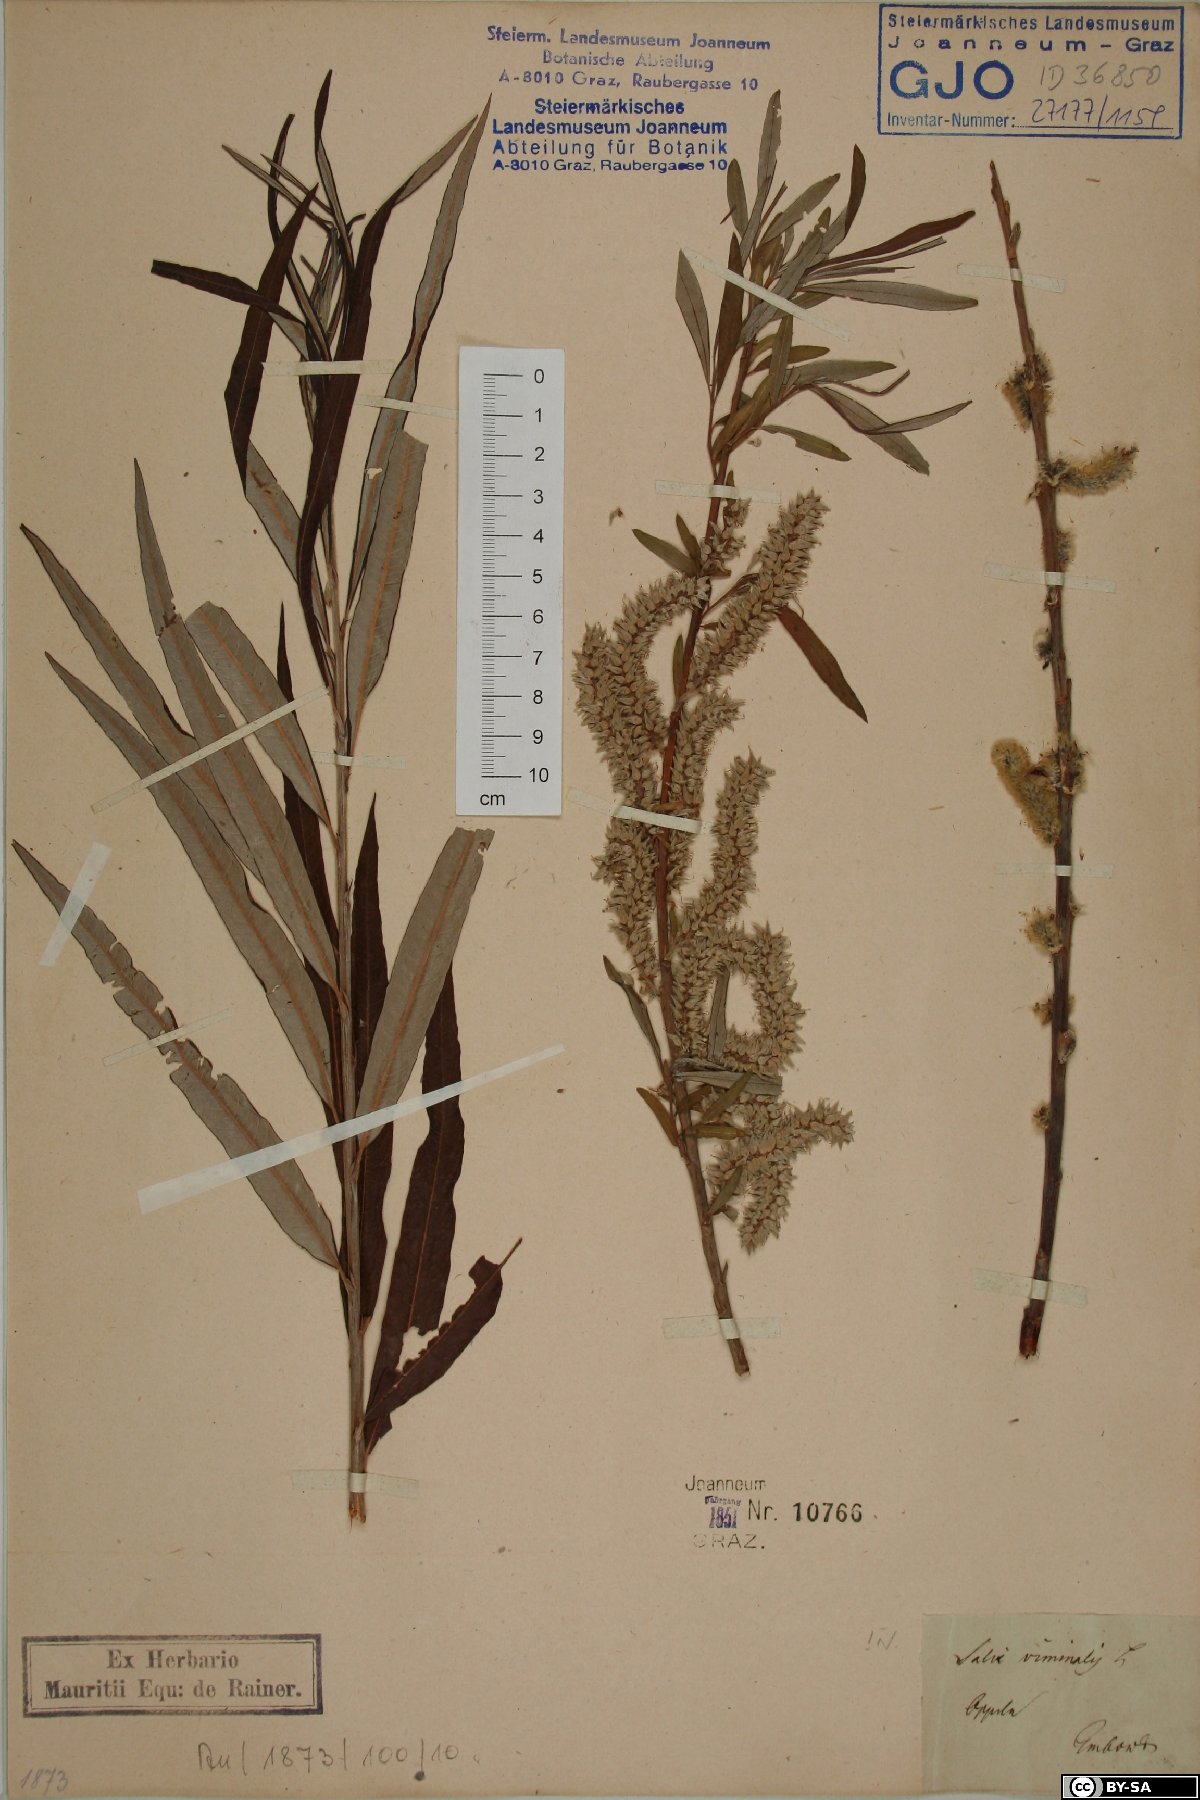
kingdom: Plantae
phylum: Tracheophyta
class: Magnoliopsida
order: Malpighiales
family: Salicaceae
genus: Salix
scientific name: Salix viminalis
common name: Osier
